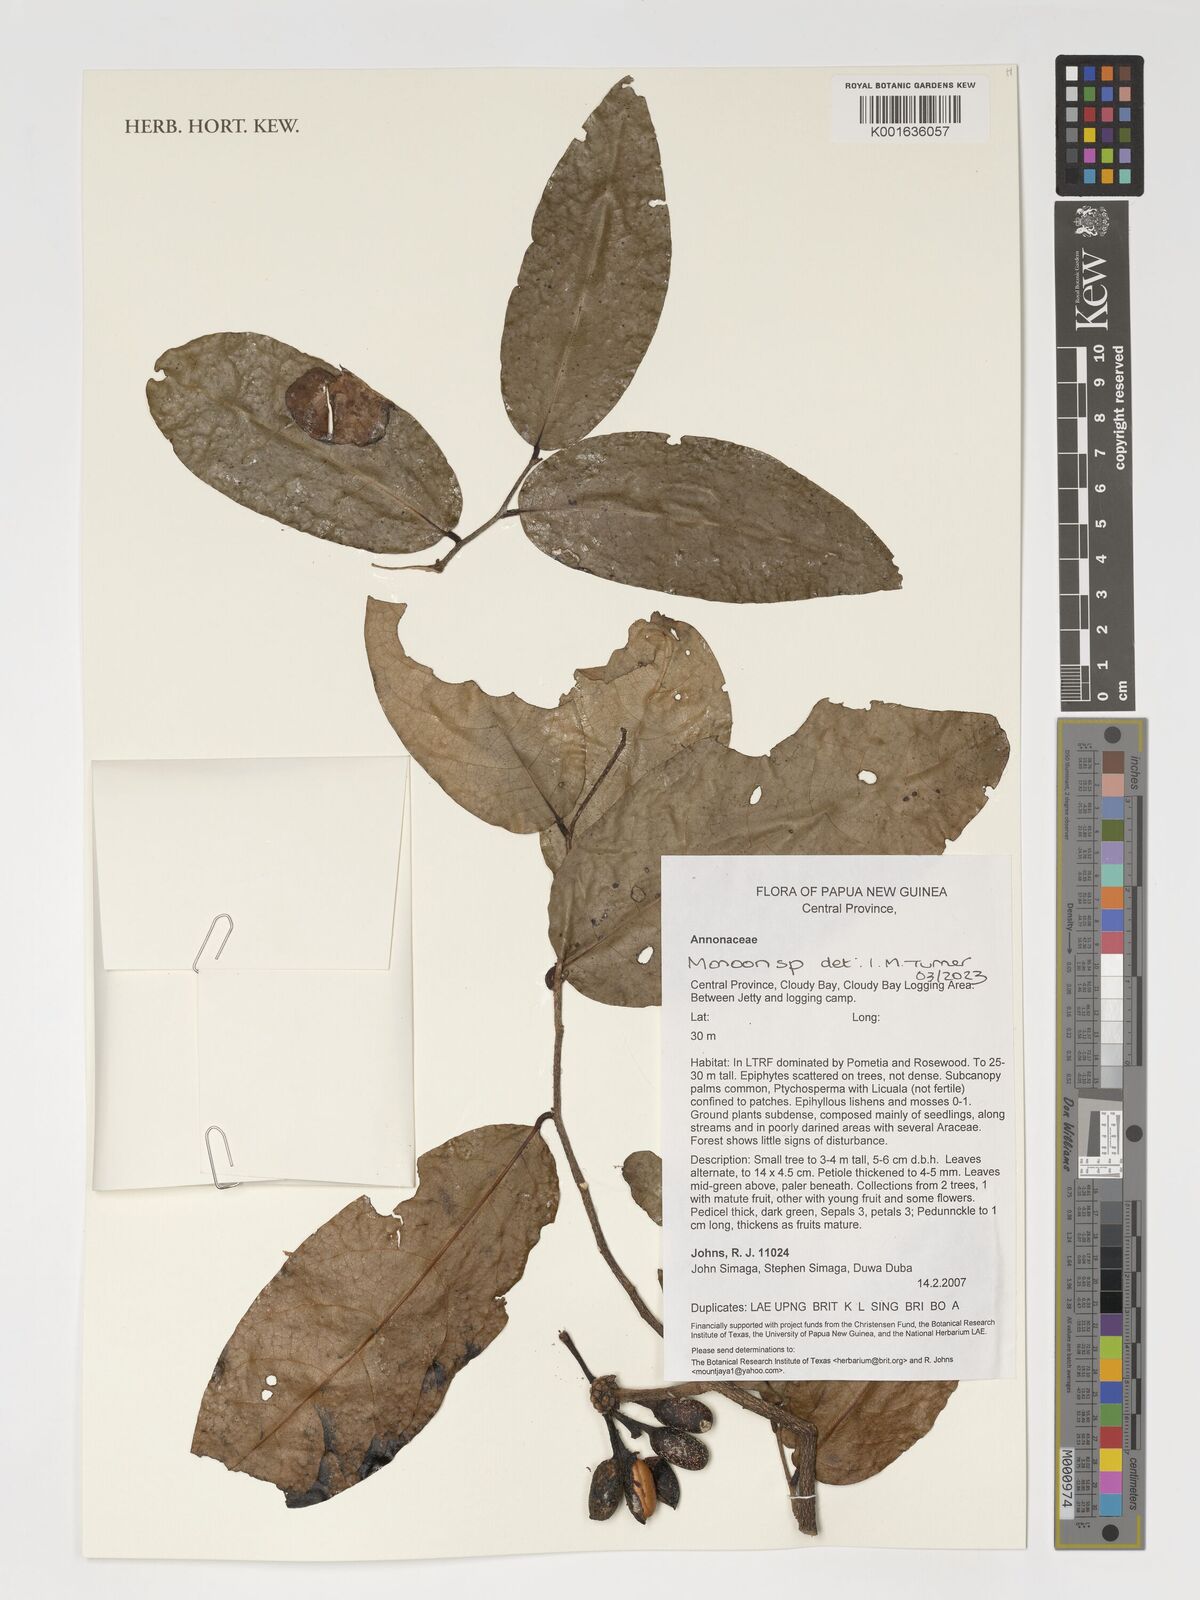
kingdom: Plantae
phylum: Tracheophyta
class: Magnoliopsida
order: Magnoliales
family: Annonaceae
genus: Monoon
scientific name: Monoon
